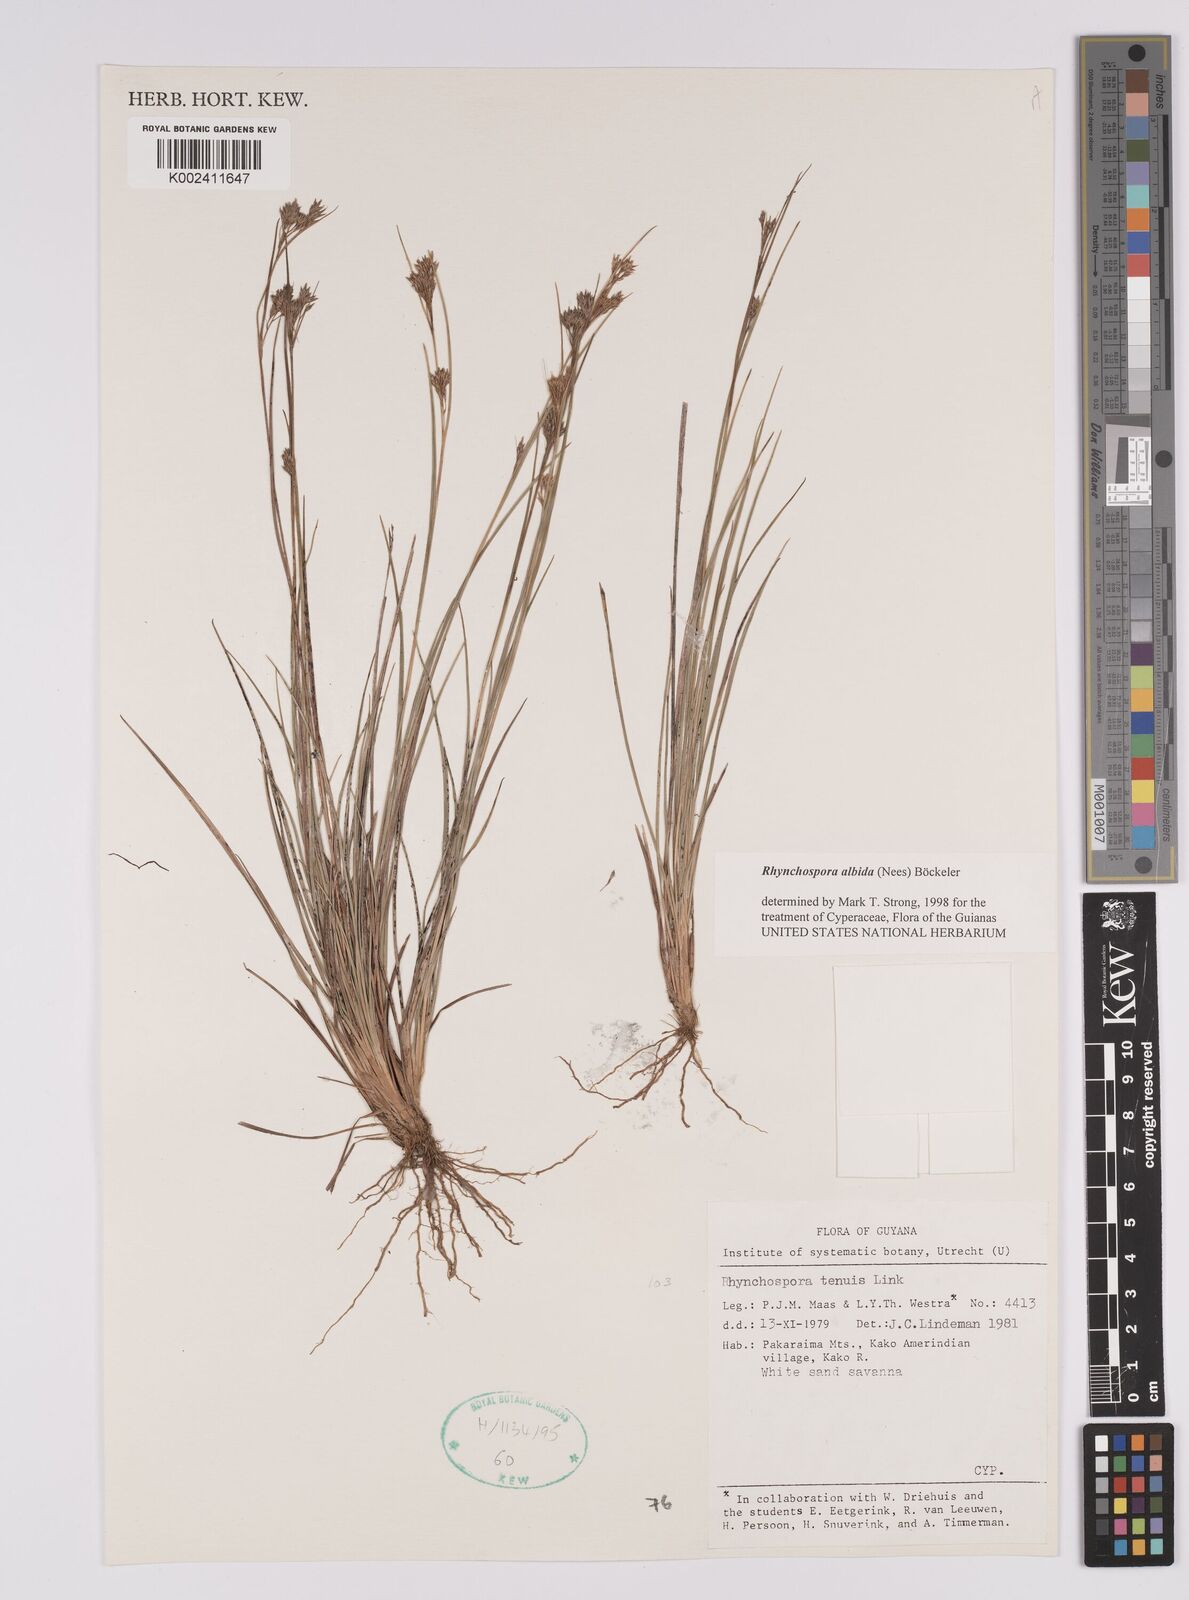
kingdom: Plantae
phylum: Tracheophyta
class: Liliopsida
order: Poales
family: Cyperaceae
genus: Rhynchospora
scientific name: Rhynchospora albida
